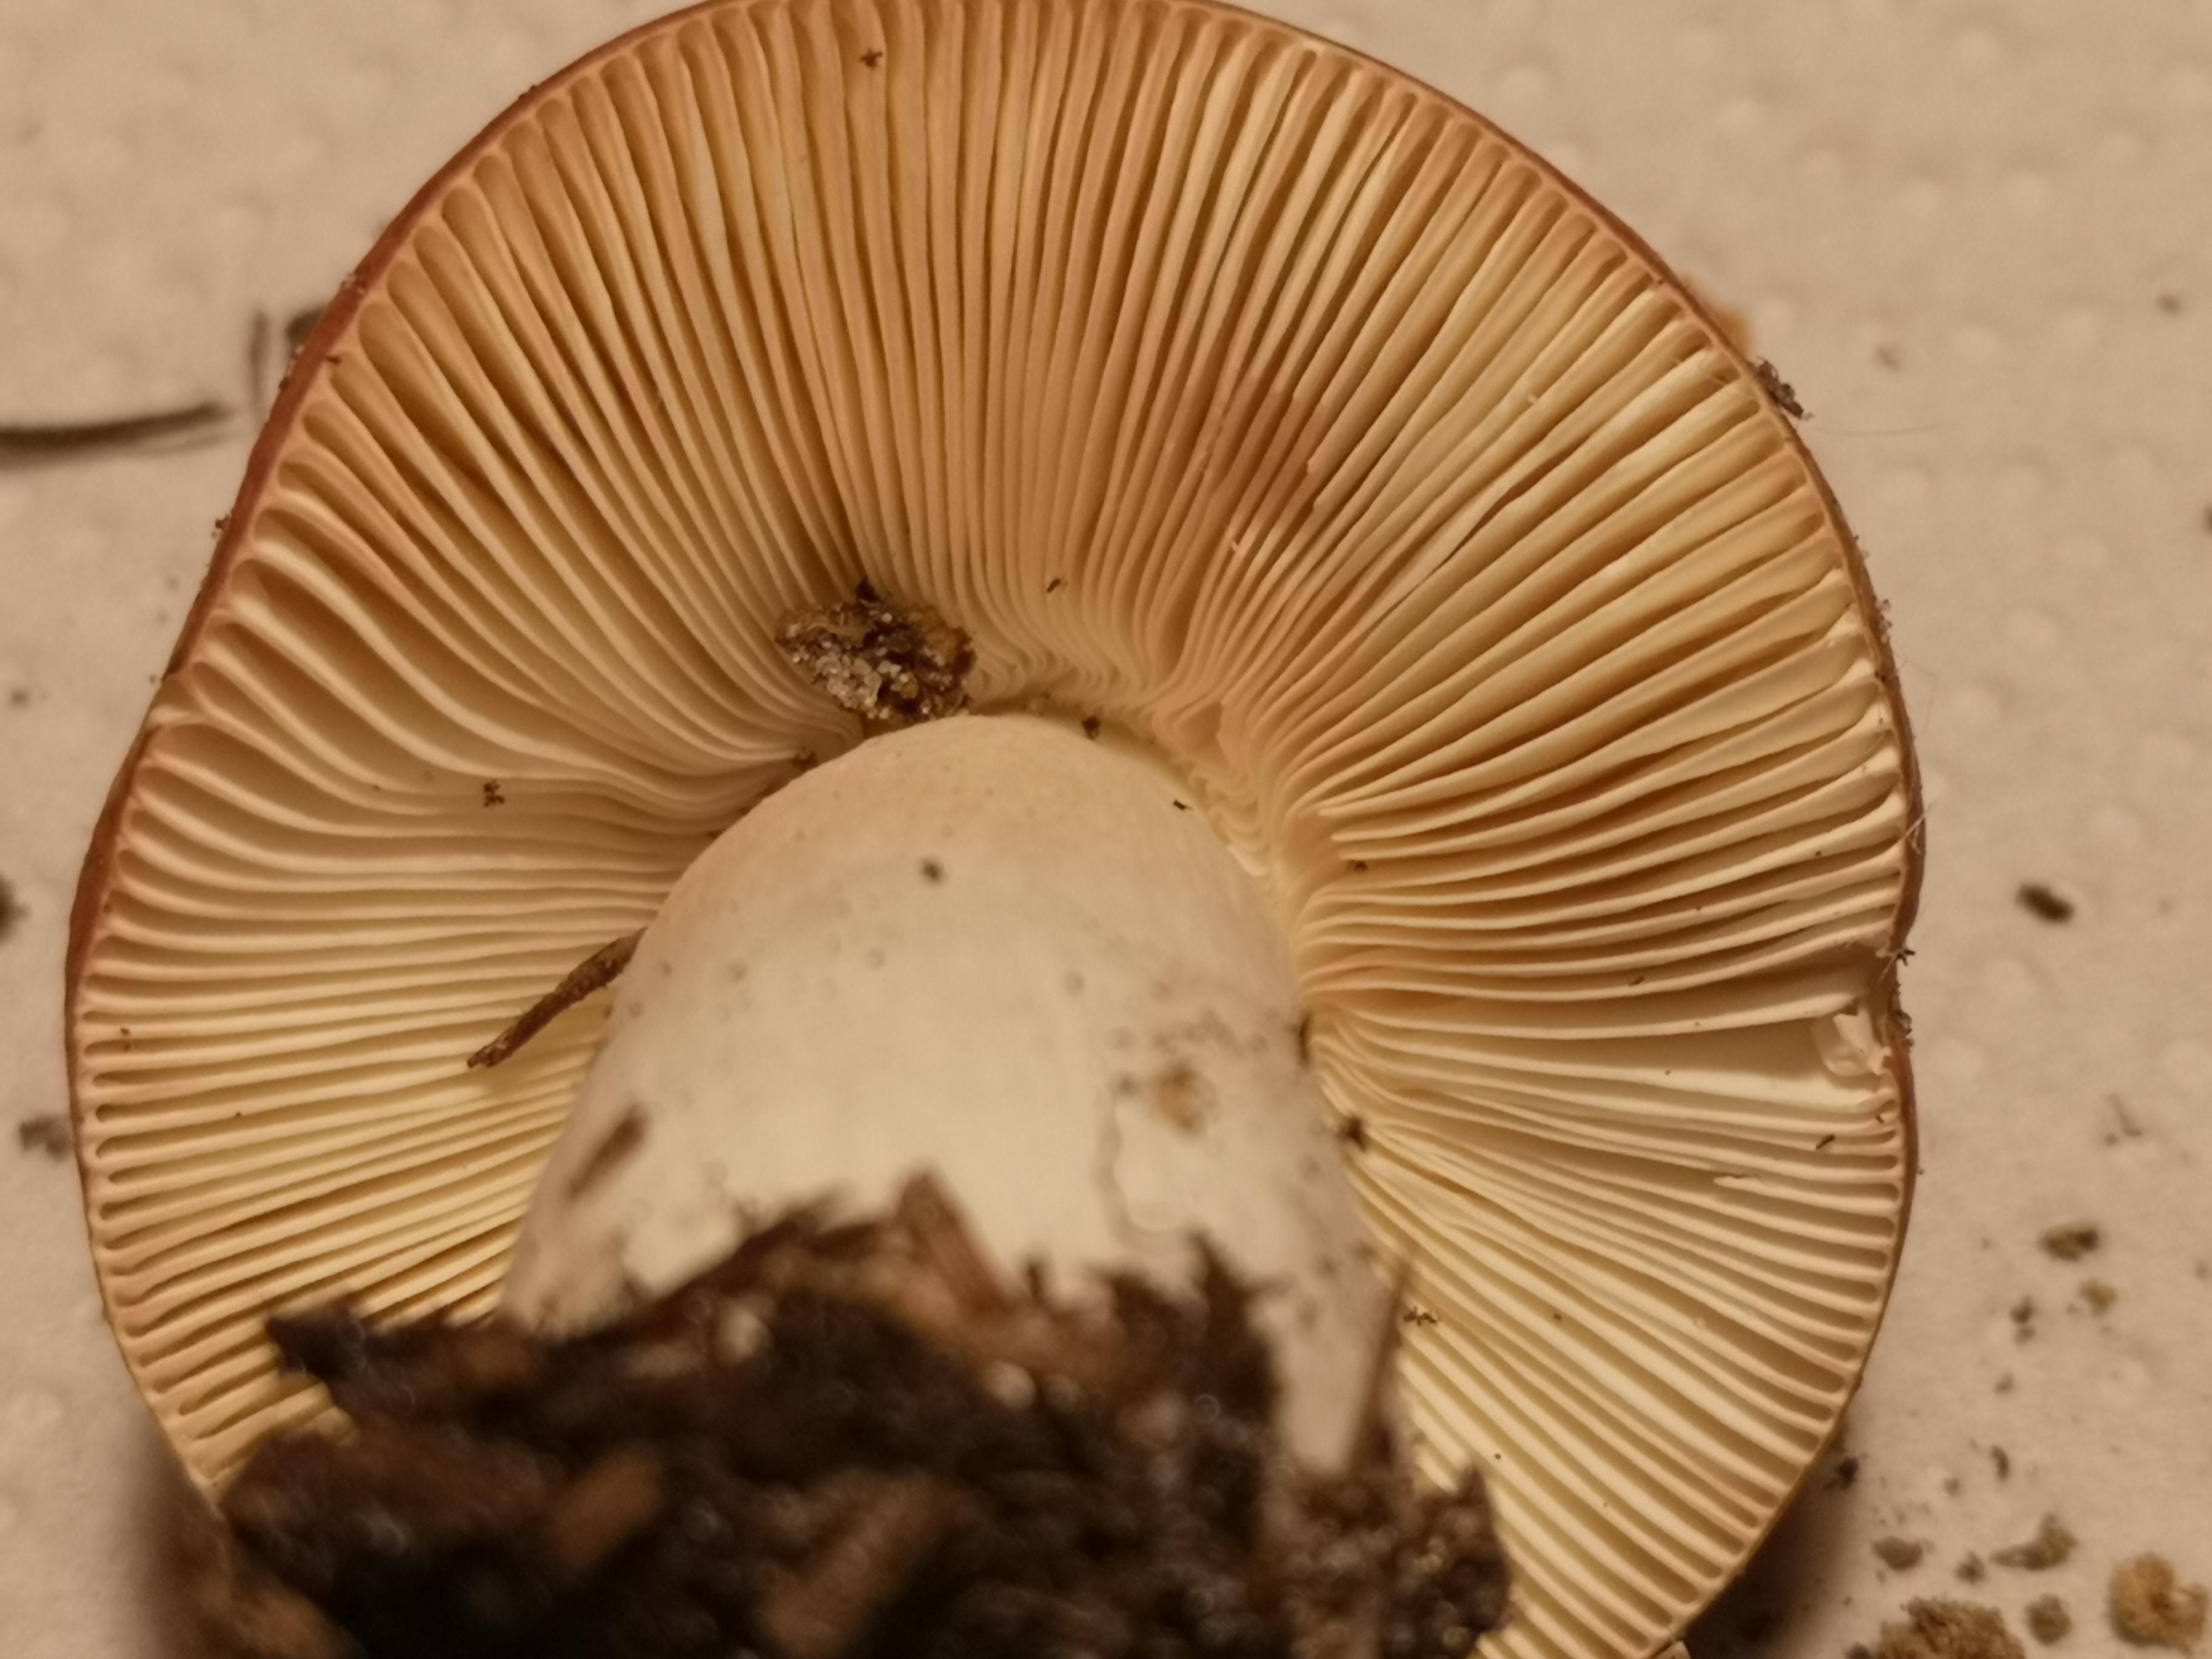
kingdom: Fungi
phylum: Basidiomycota
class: Agaricomycetes
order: Russulales
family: Russulaceae
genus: Russula
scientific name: Russula paludosa
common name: prægtig skørhat
